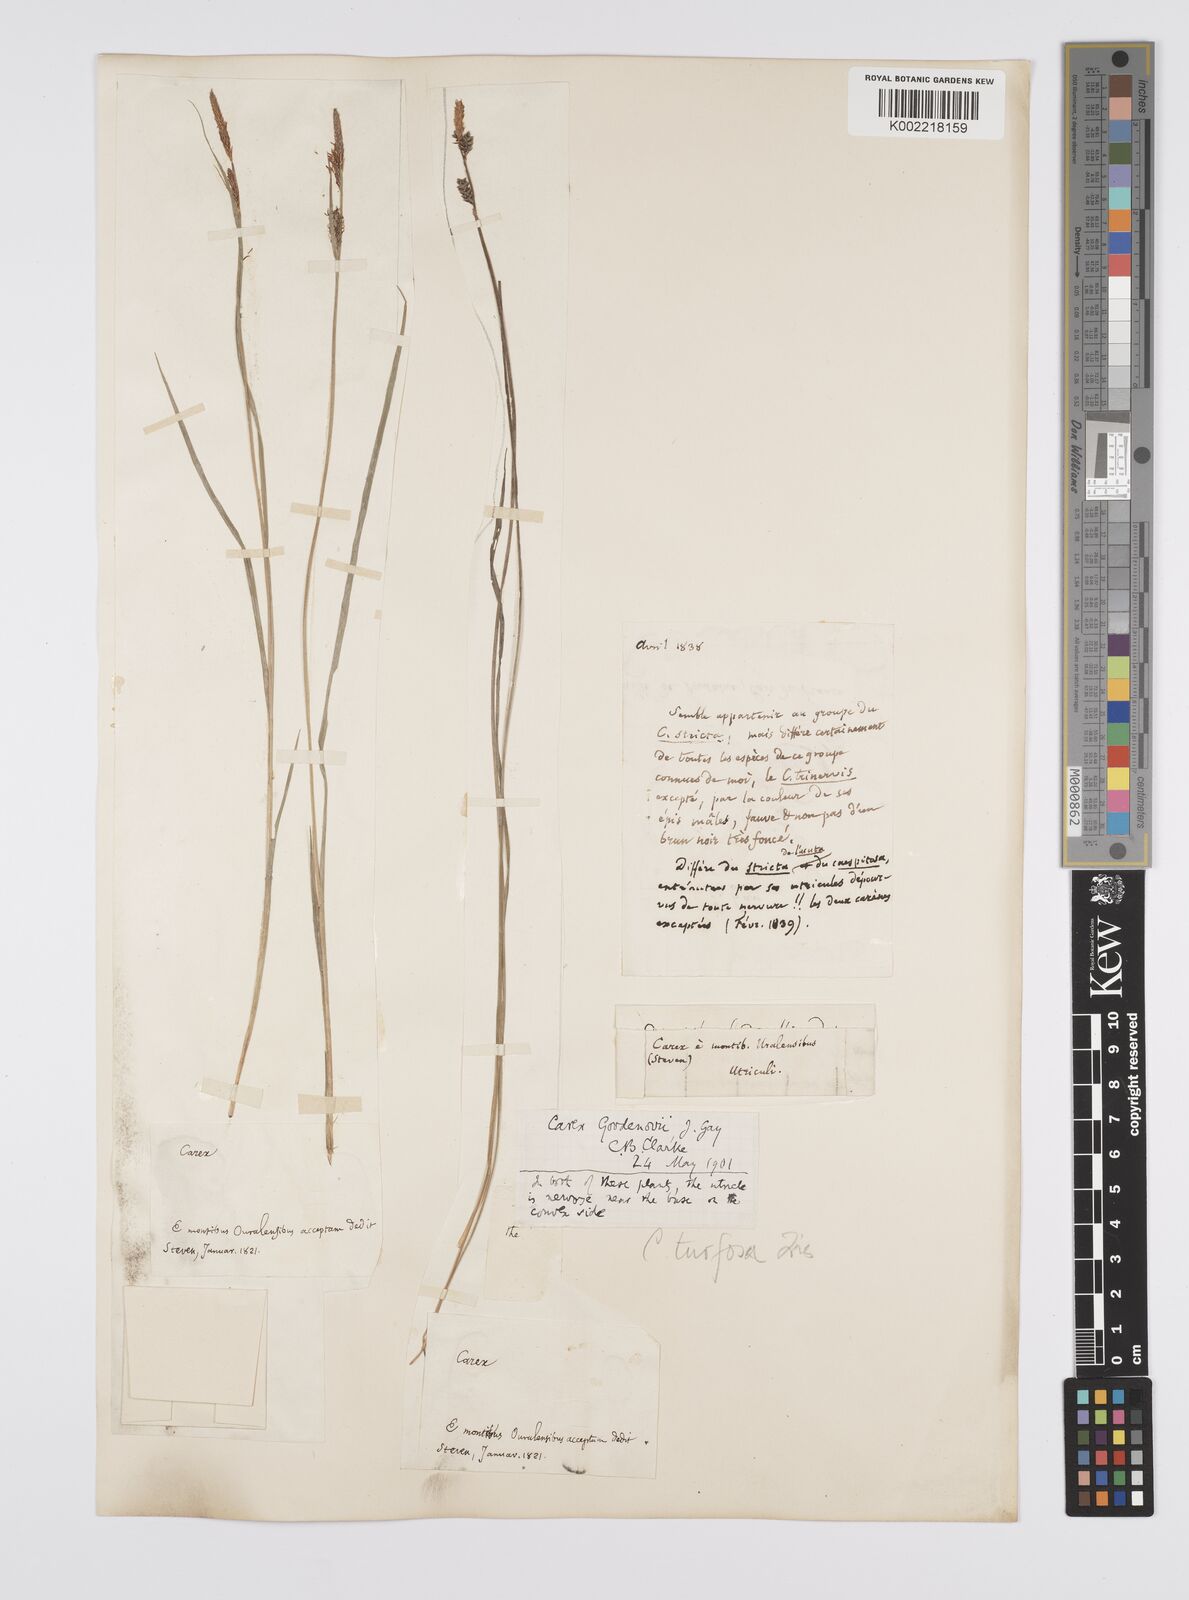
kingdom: Plantae
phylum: Tracheophyta
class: Liliopsida
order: Poales
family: Cyperaceae
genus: Carex
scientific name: Carex nigra
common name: Common sedge
